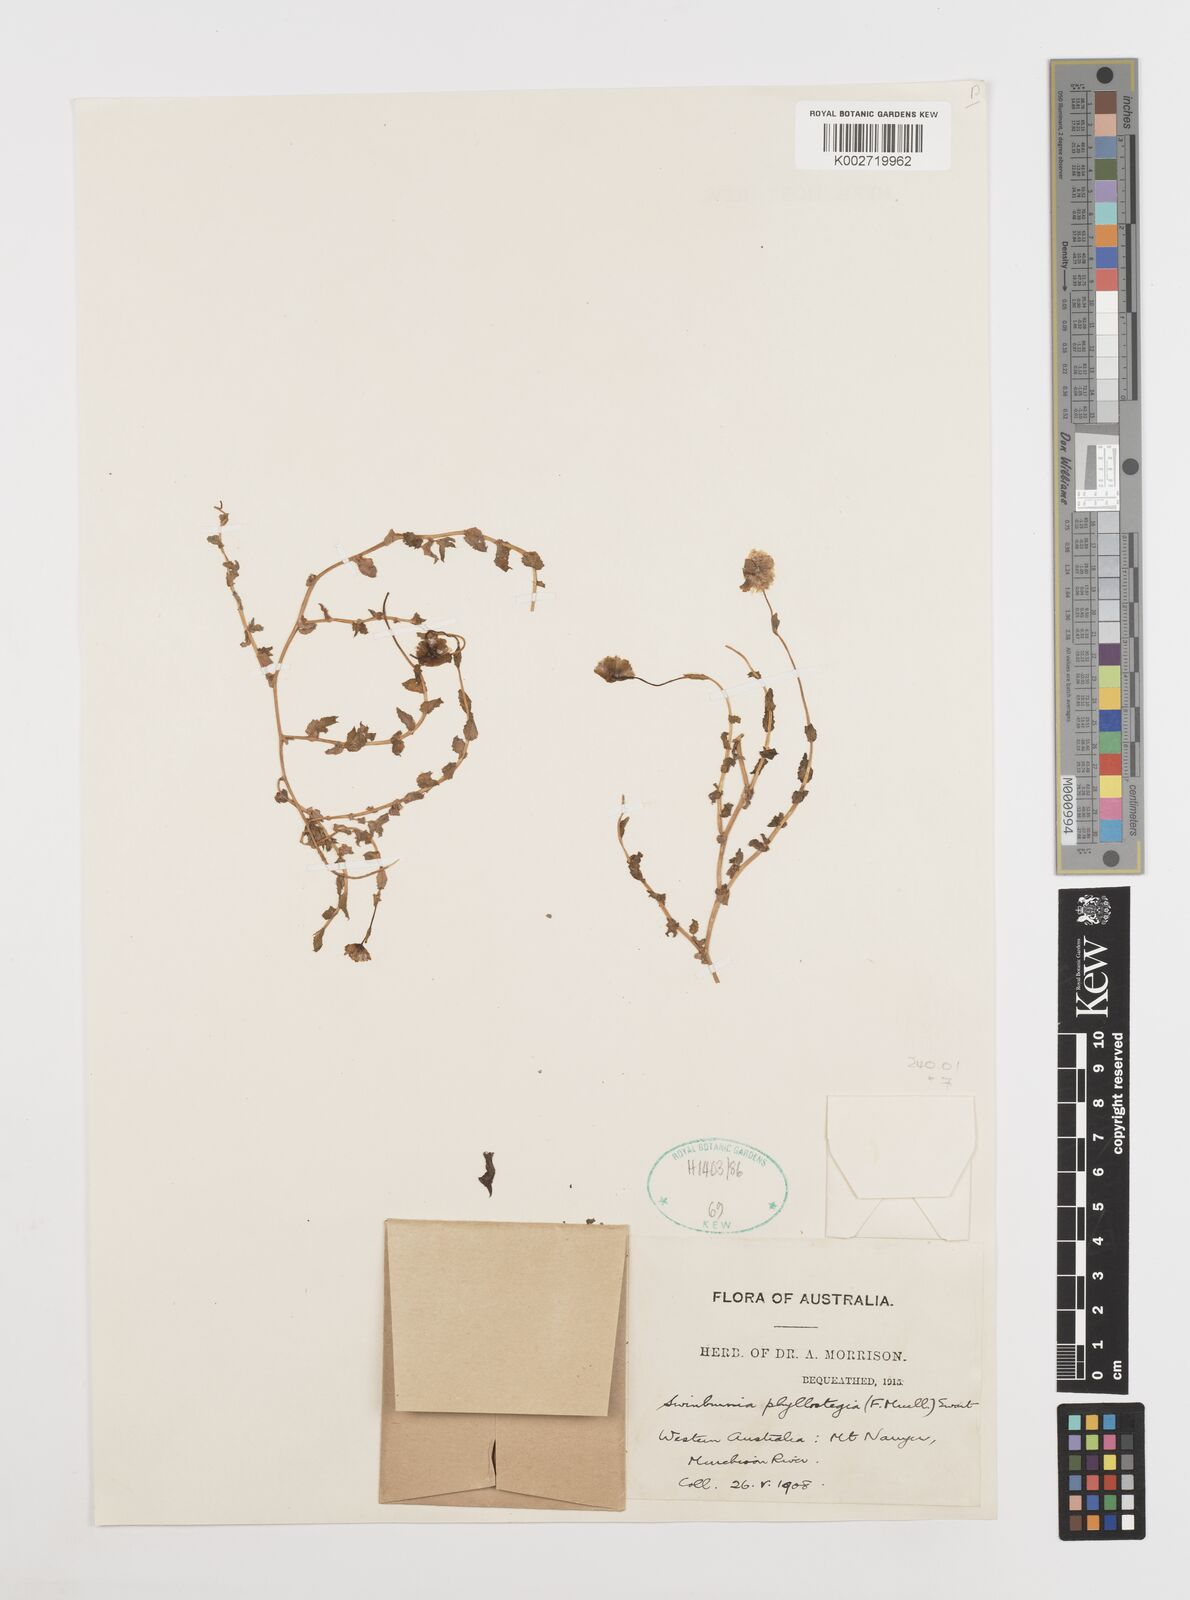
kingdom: Plantae
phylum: Tracheophyta
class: Magnoliopsida
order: Asterales
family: Asteraceae
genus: Neotysonia
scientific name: Neotysonia phyllostegia
